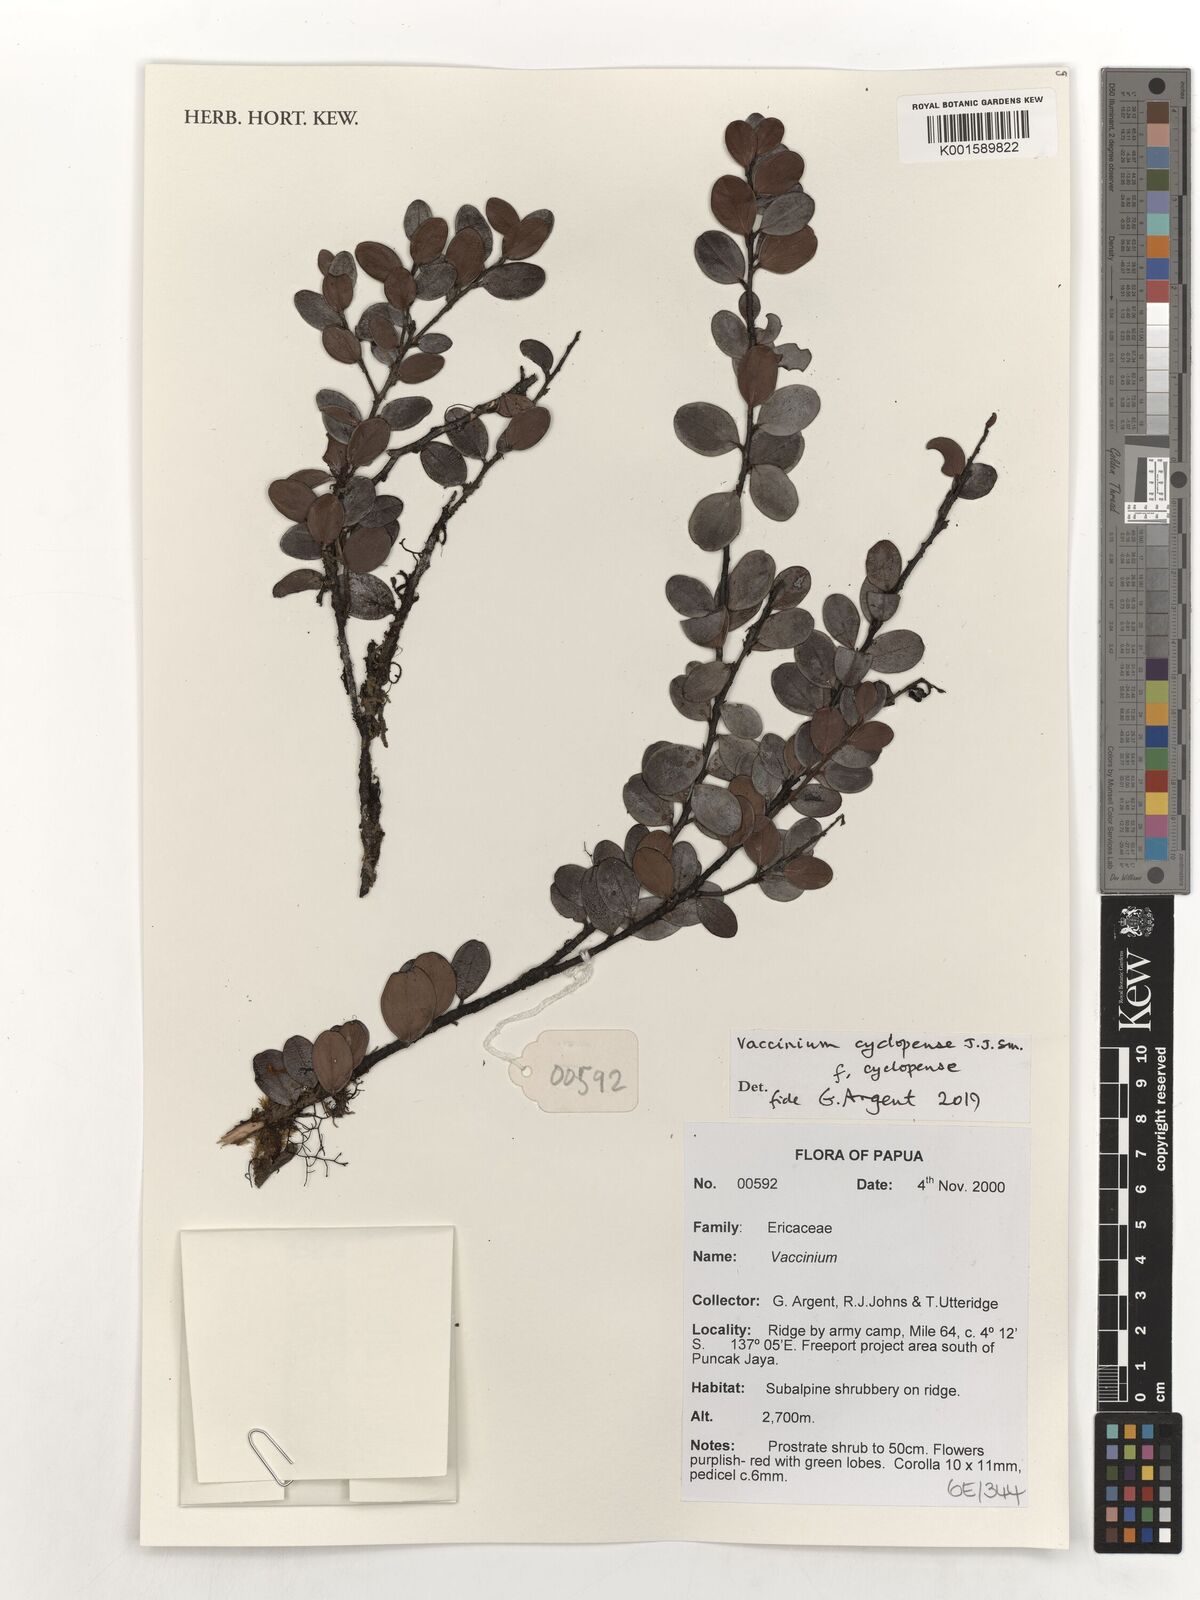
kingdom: Plantae
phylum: Tracheophyta
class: Magnoliopsida
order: Ericales
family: Ericaceae
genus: Vaccinium
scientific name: Vaccinium cyclopense
